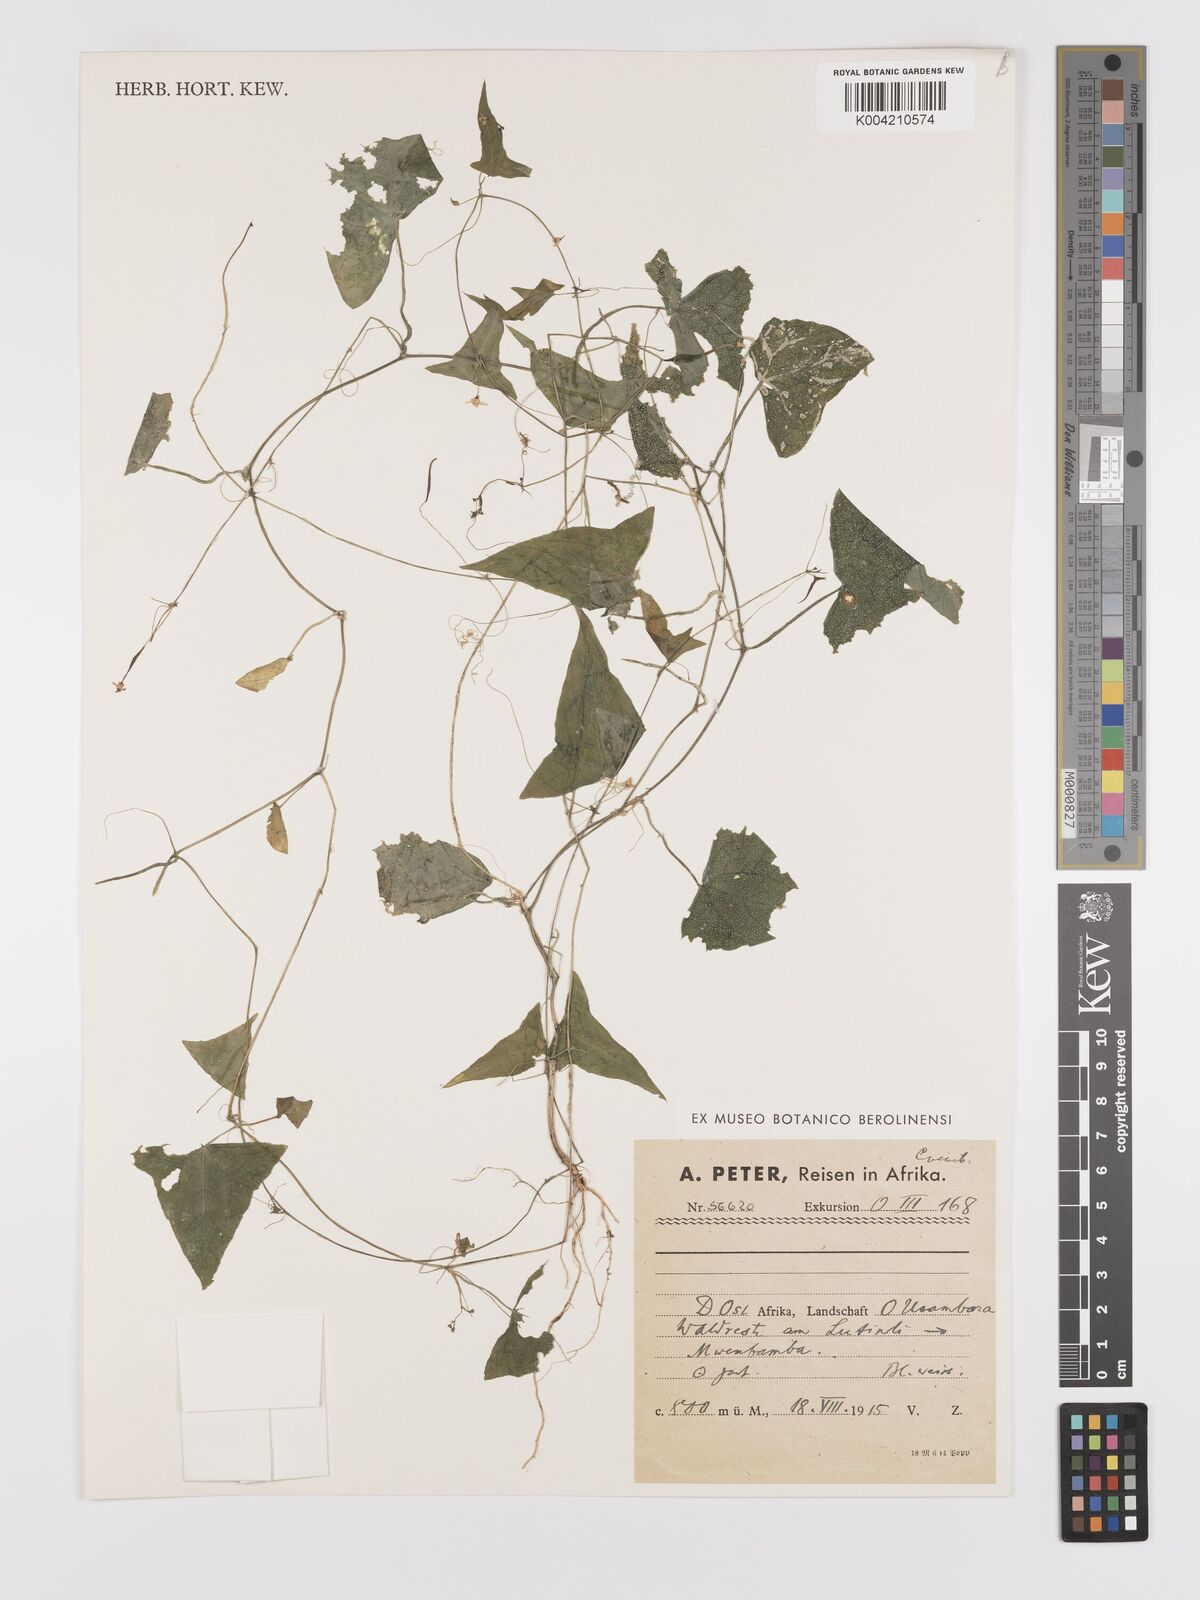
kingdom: Plantae
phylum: Tracheophyta
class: Magnoliopsida
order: Cucurbitales
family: Cucurbitaceae
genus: Zehneria
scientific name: Zehneria thwaitesii
